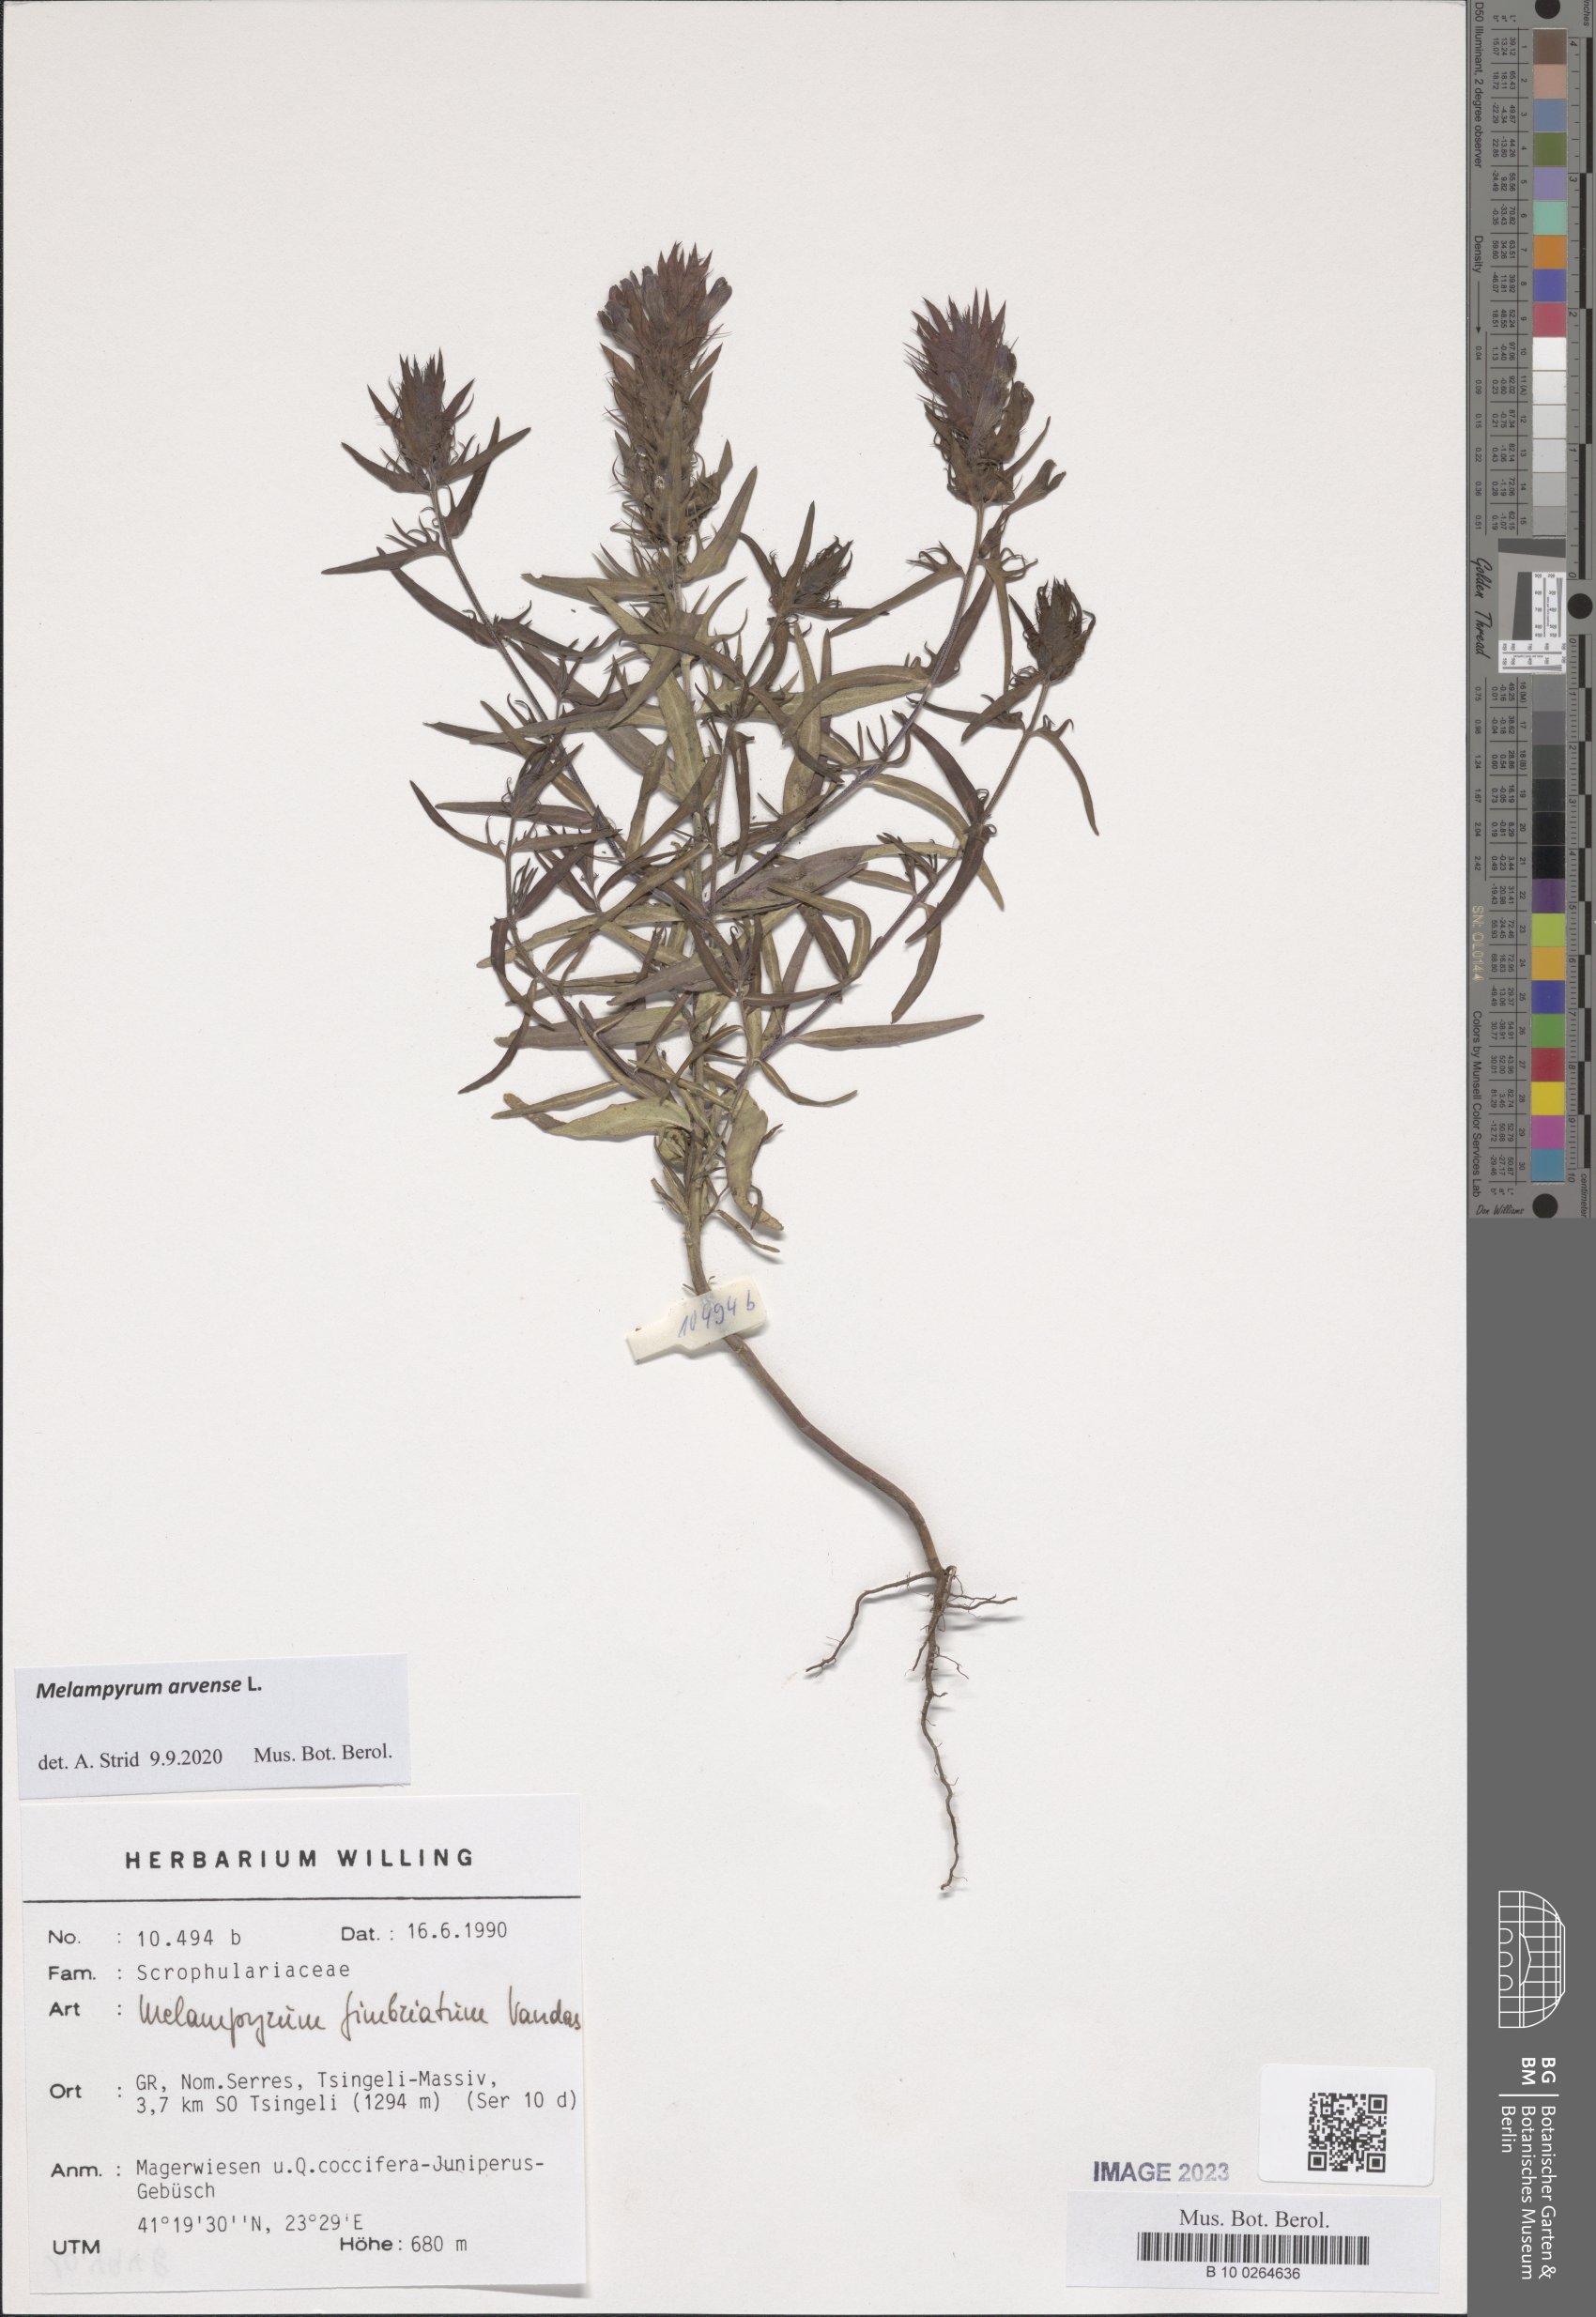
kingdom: Plantae
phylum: Tracheophyta
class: Magnoliopsida
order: Lamiales
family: Orobanchaceae
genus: Melampyrum
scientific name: Melampyrum arvense
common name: Field cow-wheat
